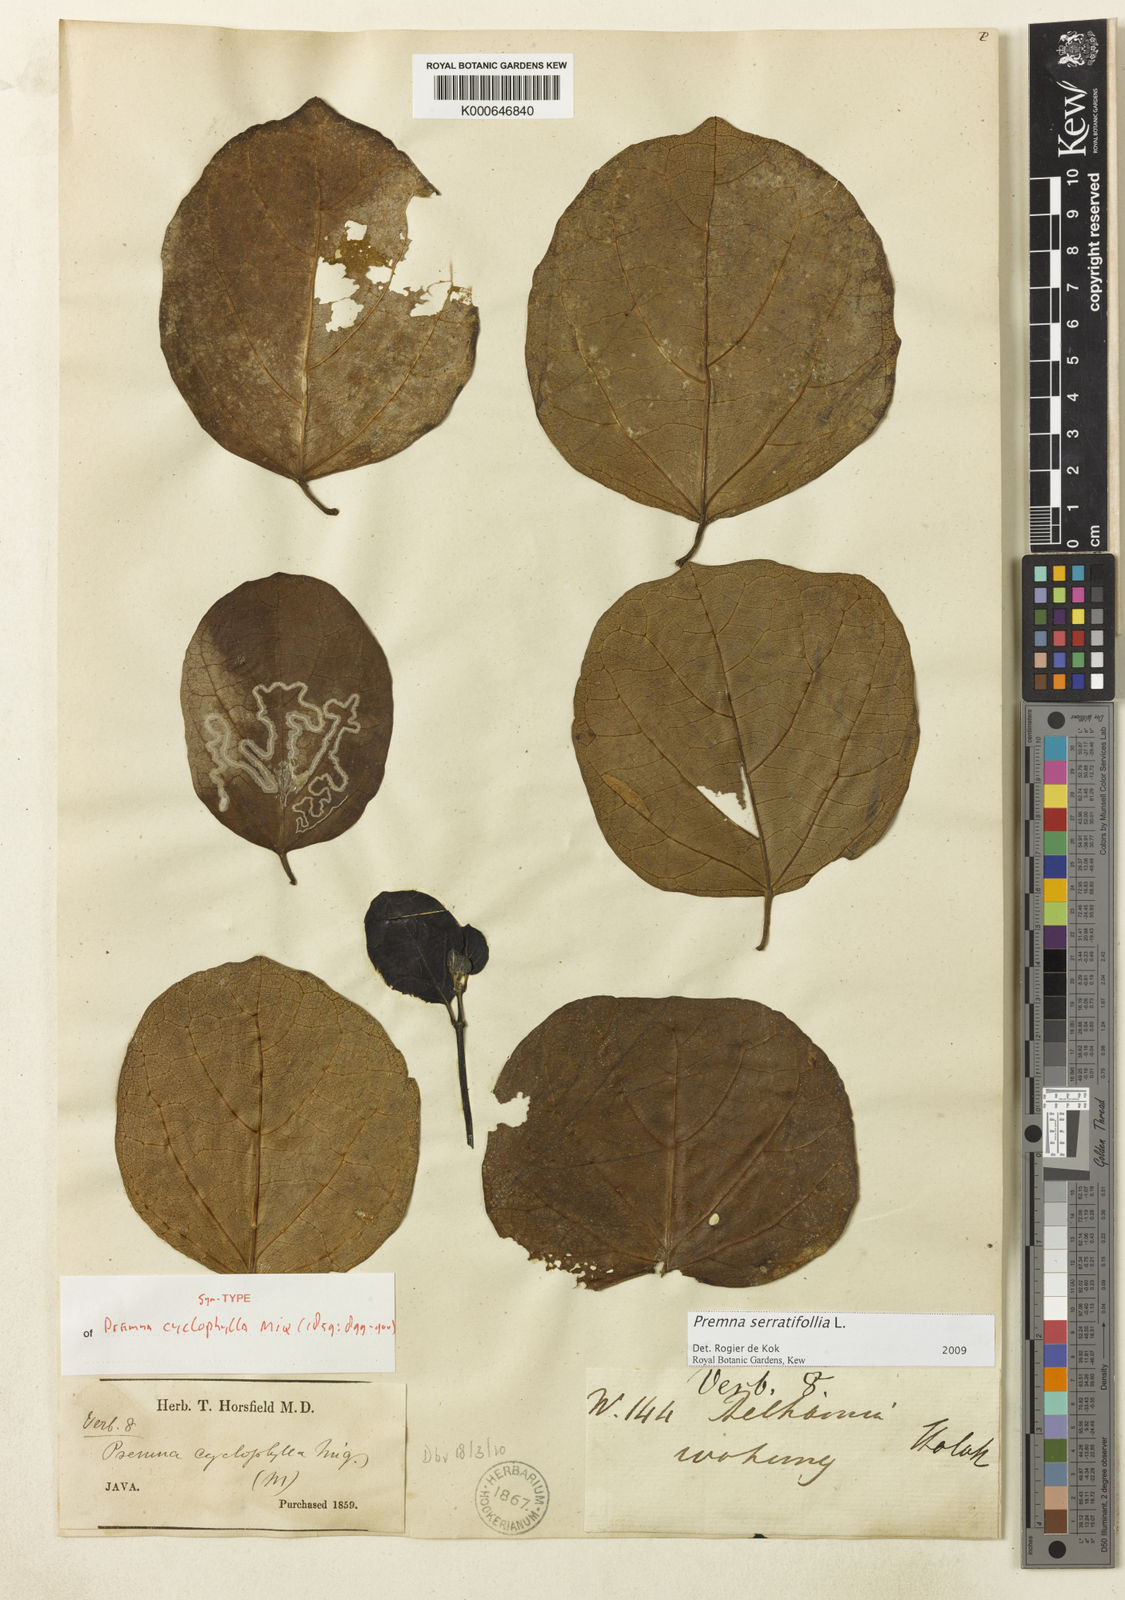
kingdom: Plantae
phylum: Tracheophyta
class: Magnoliopsida
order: Lamiales
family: Lamiaceae
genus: Premna
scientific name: Premna serratifolia
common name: Bastard guelder
